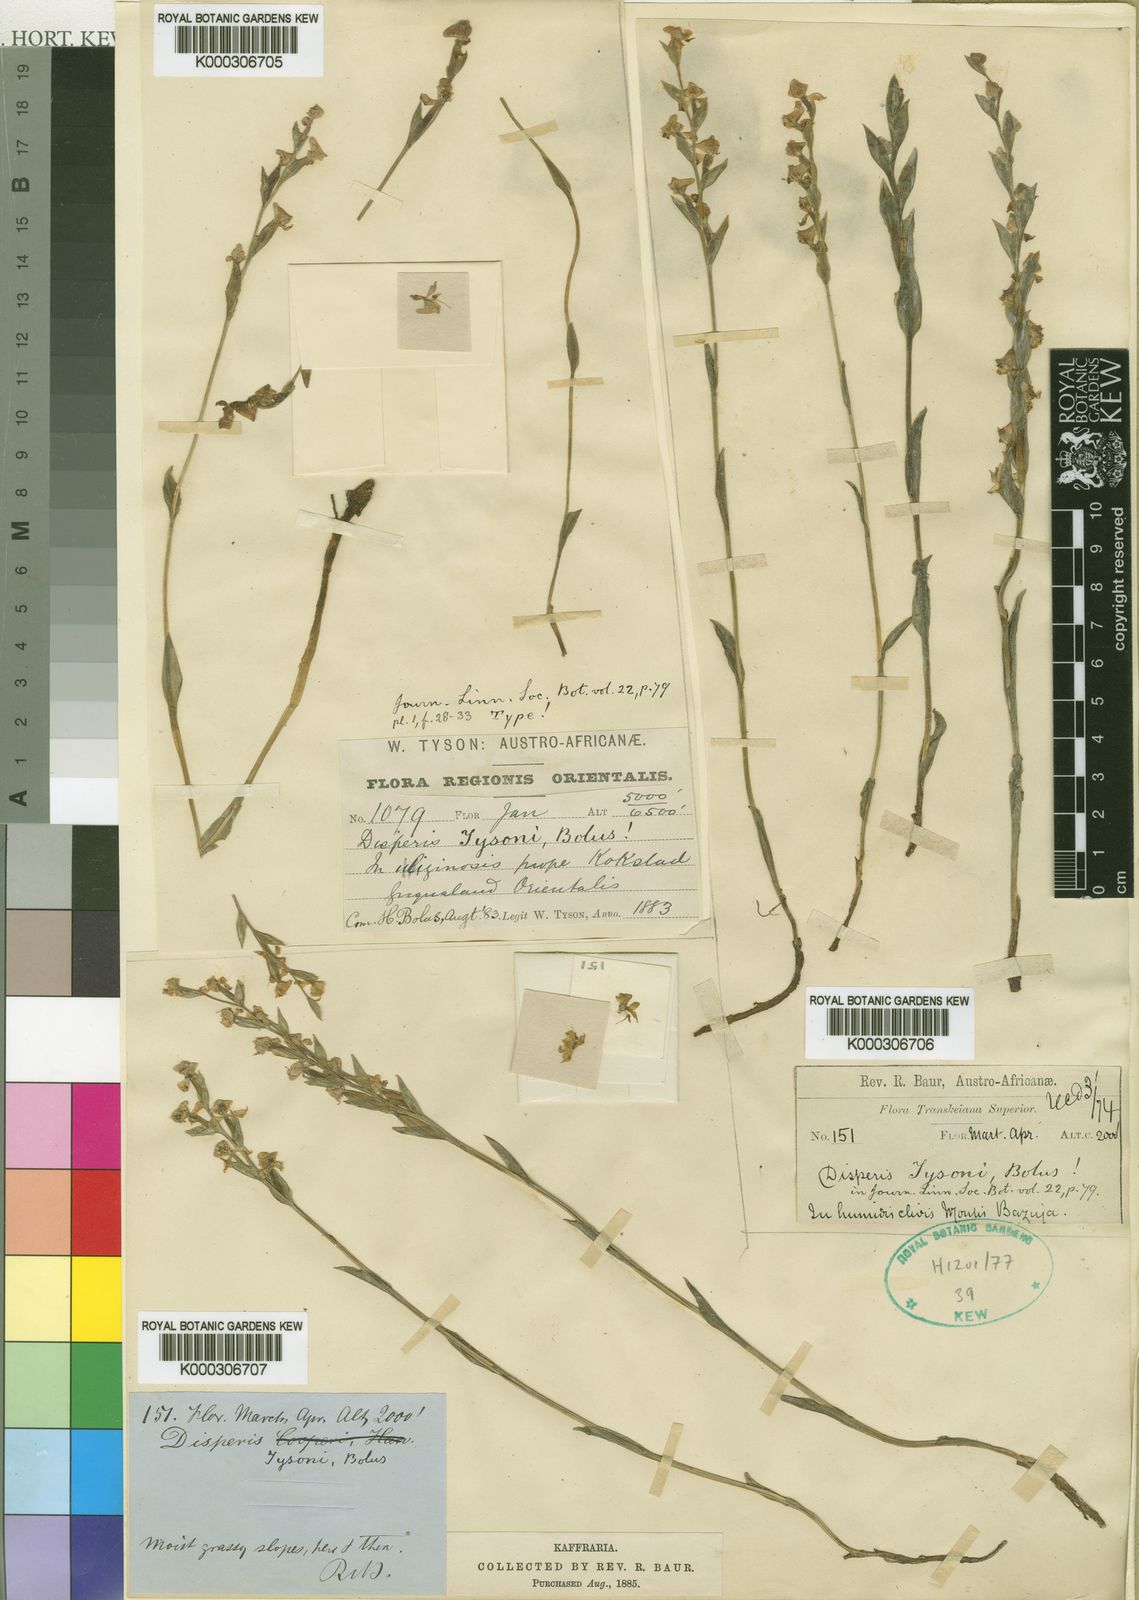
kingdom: Plantae
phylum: Tracheophyta
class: Liliopsida
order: Asparagales
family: Orchidaceae
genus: Disperis
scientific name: Disperis tysonii
